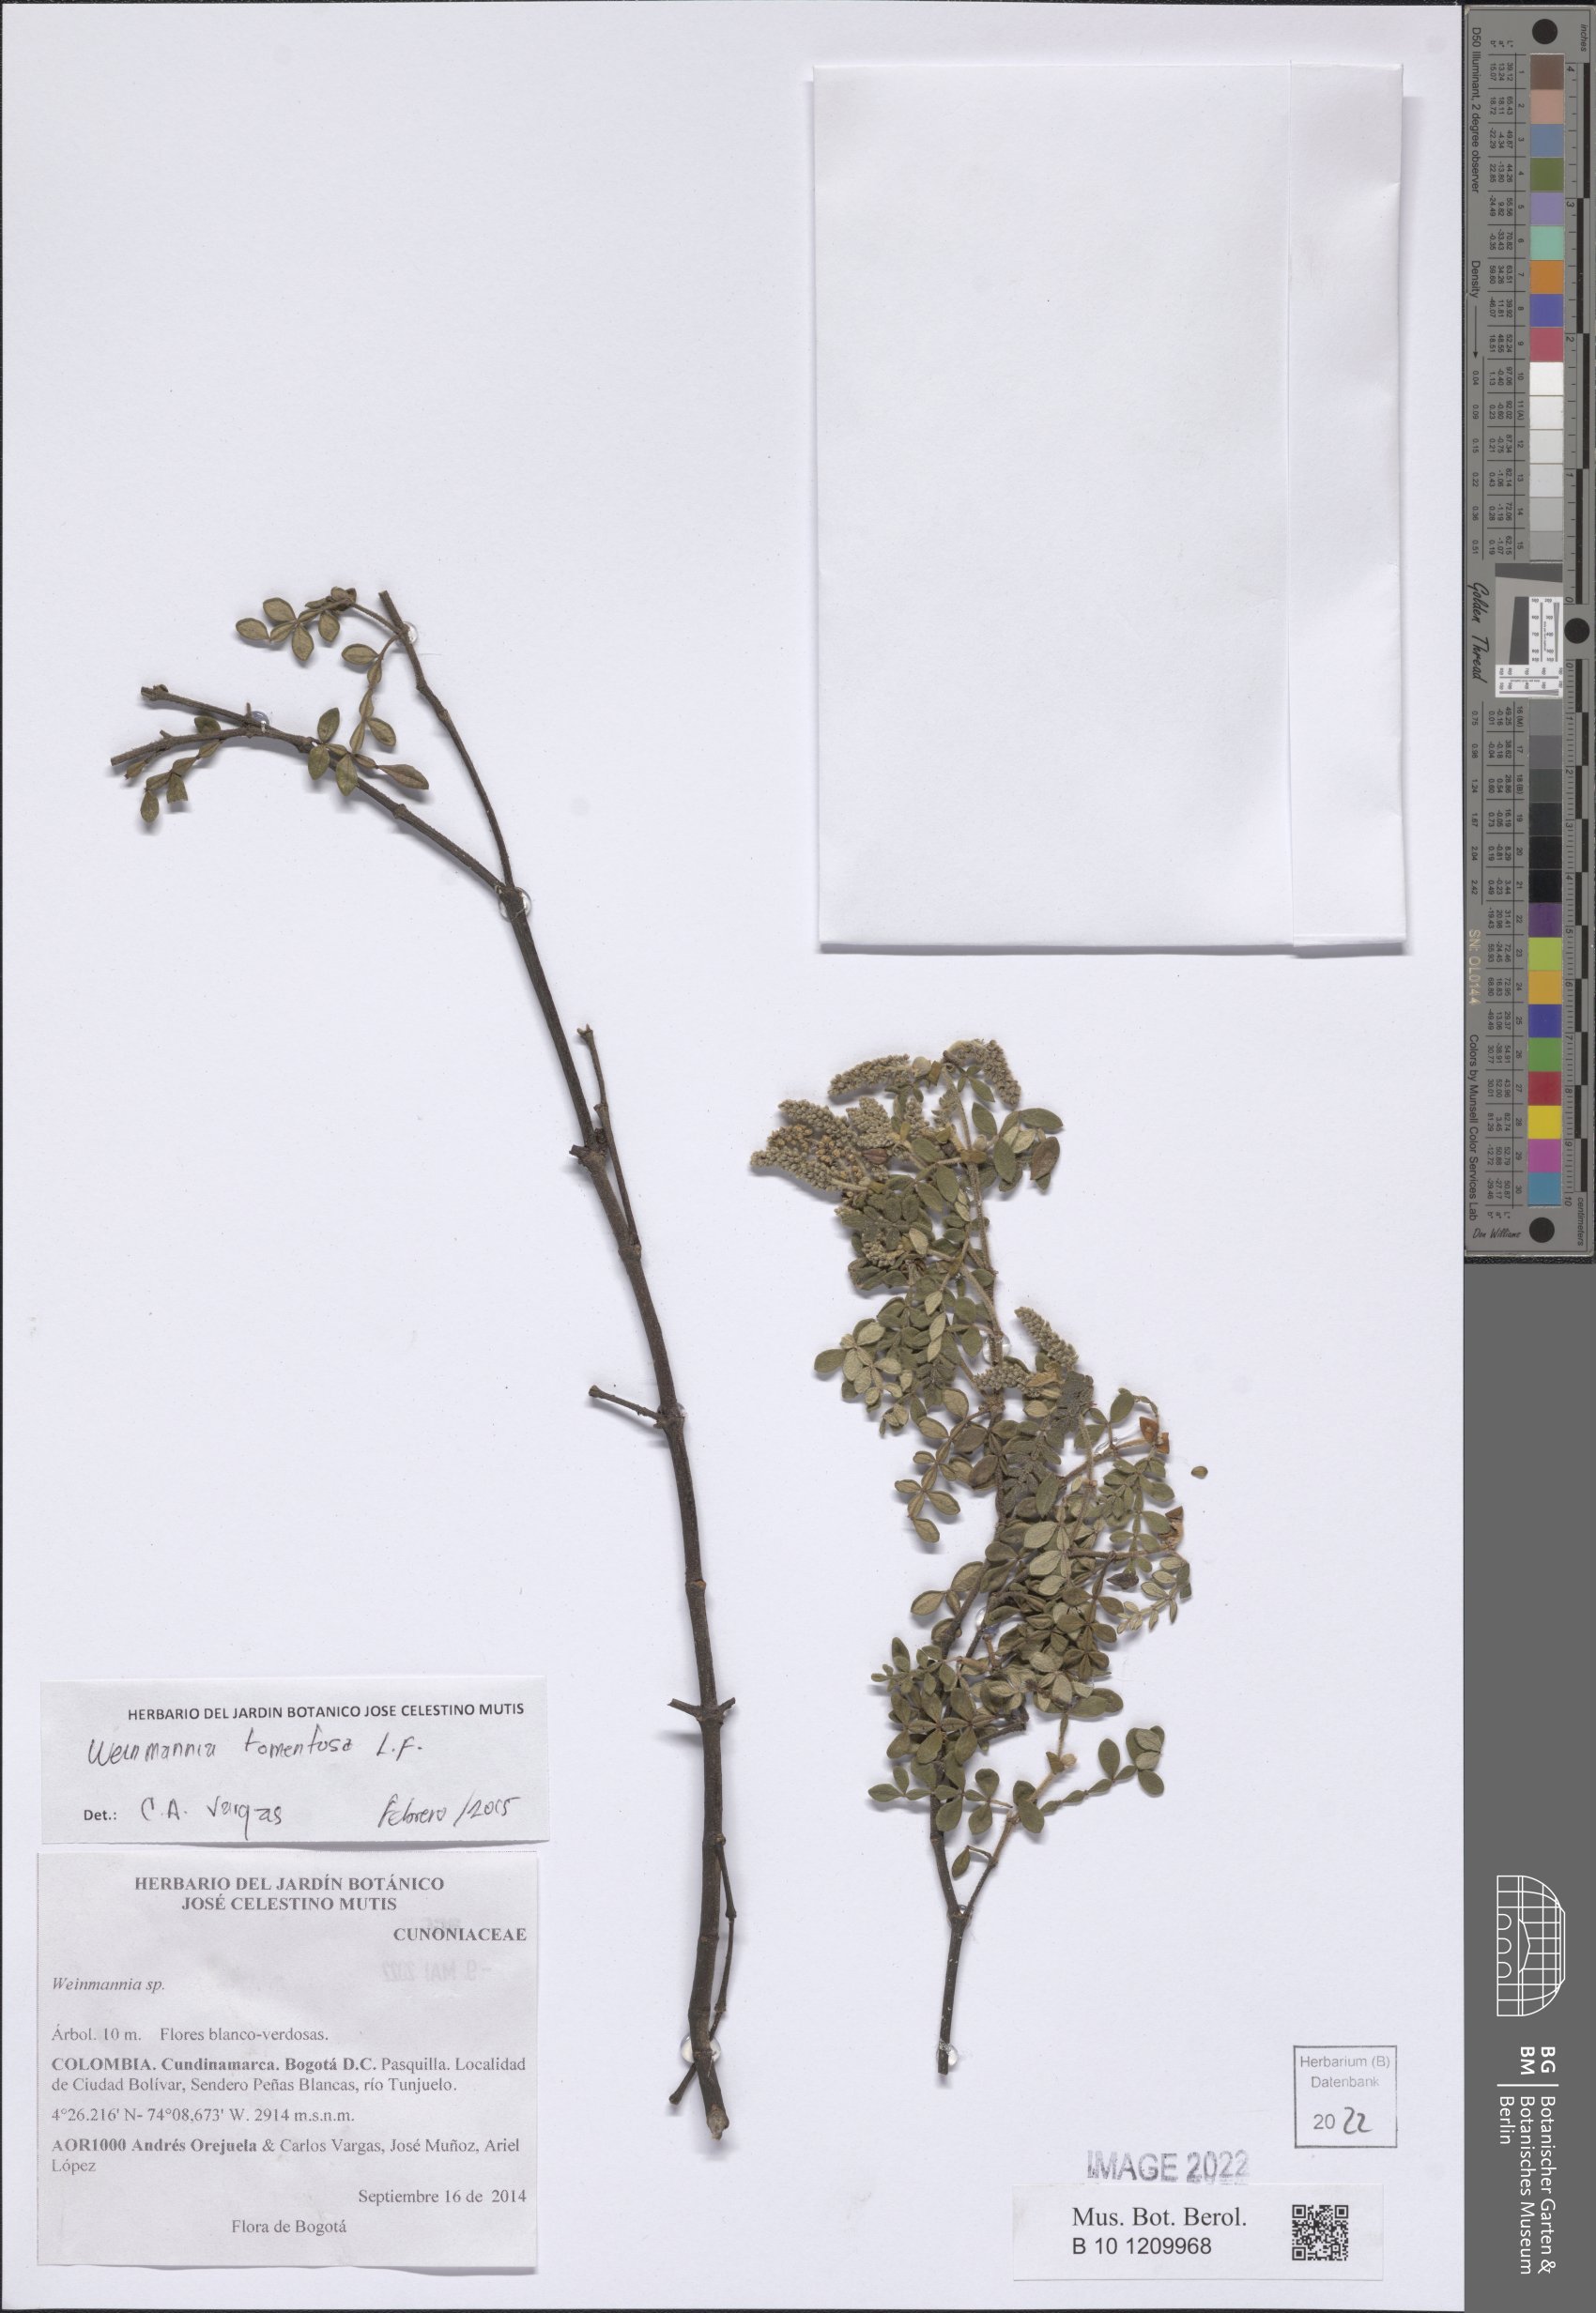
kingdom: Plantae
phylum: Tracheophyta
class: Magnoliopsida
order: Oxalidales
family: Cunoniaceae
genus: Weinmannia
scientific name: Weinmannia tomentosa
